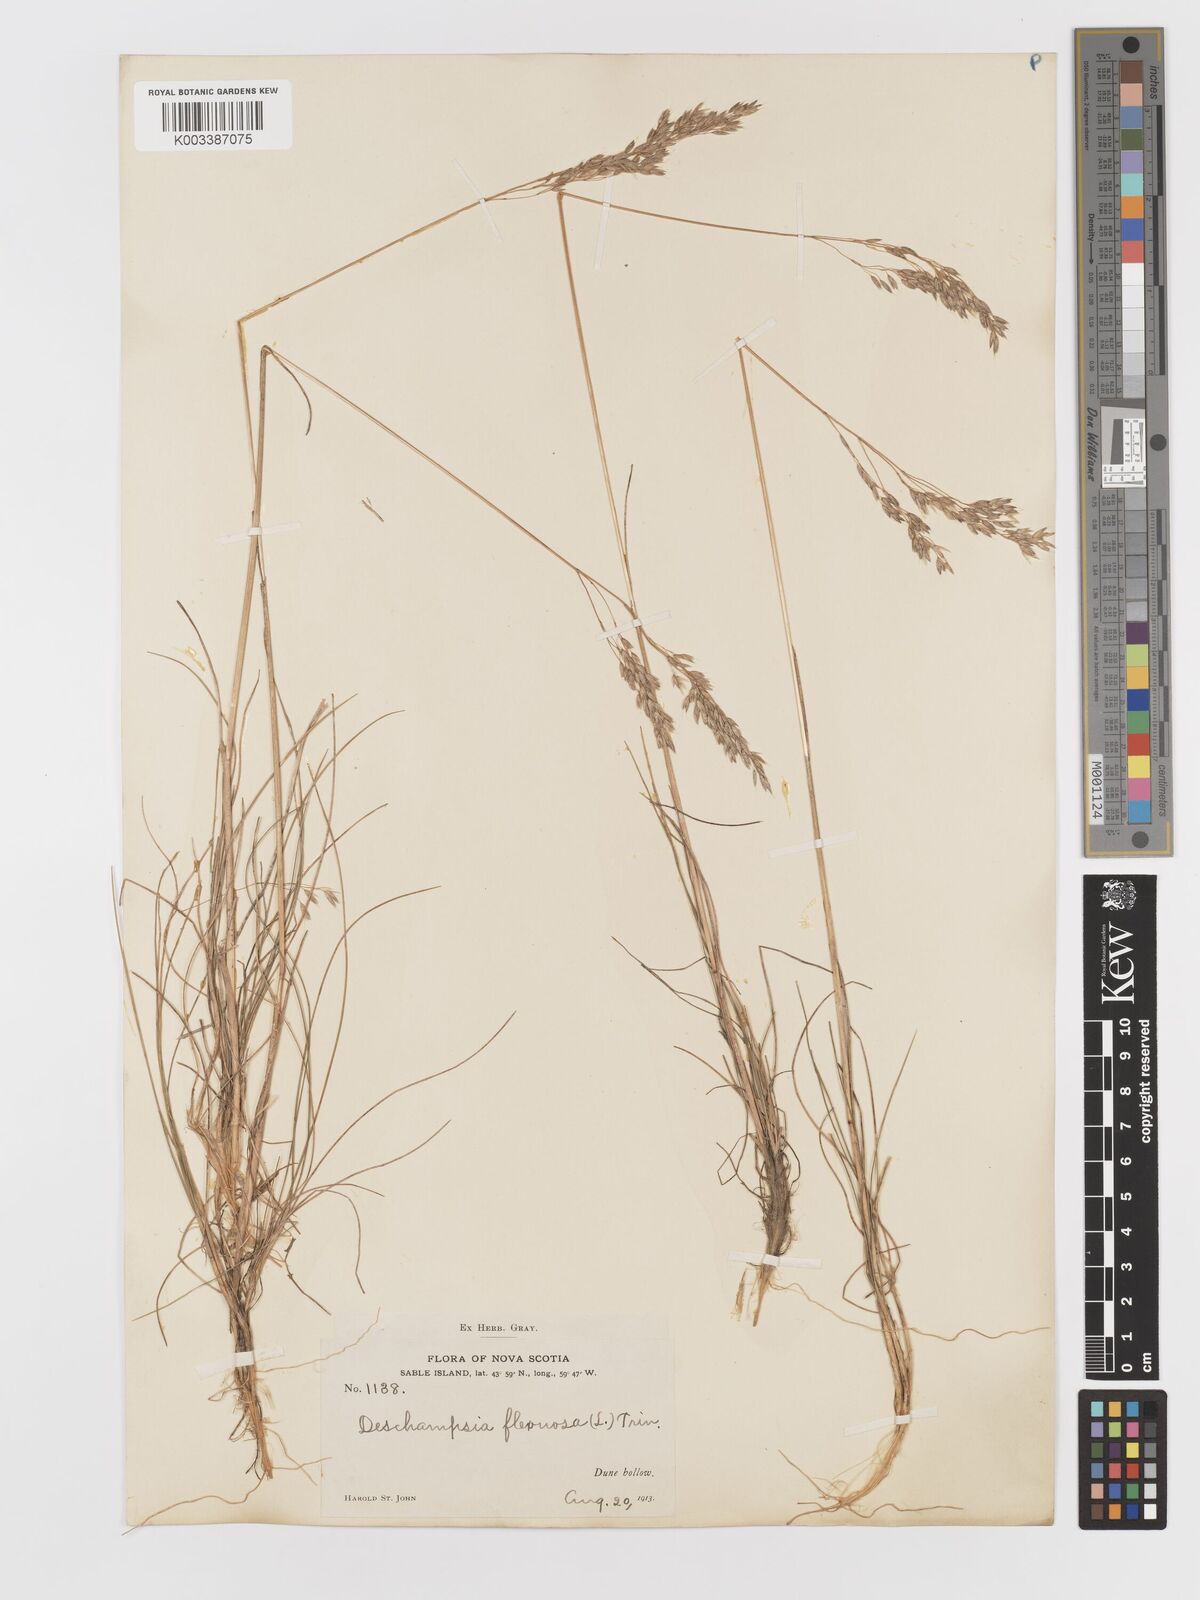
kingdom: Plantae
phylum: Tracheophyta
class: Liliopsida
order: Poales
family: Poaceae
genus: Avenella
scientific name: Avenella flexuosa
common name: Wavy hairgrass
